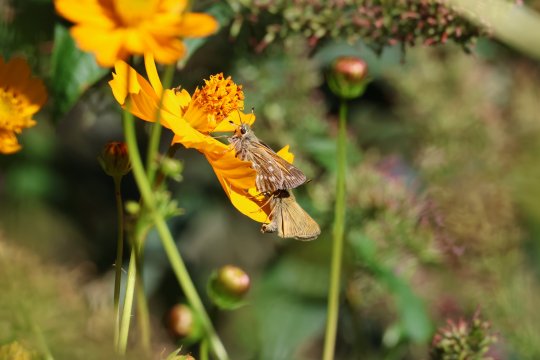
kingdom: Animalia
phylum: Arthropoda
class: Insecta
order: Lepidoptera
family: Hesperiidae
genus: Hesperia
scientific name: Hesperia comma
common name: Western Branded Skipper
